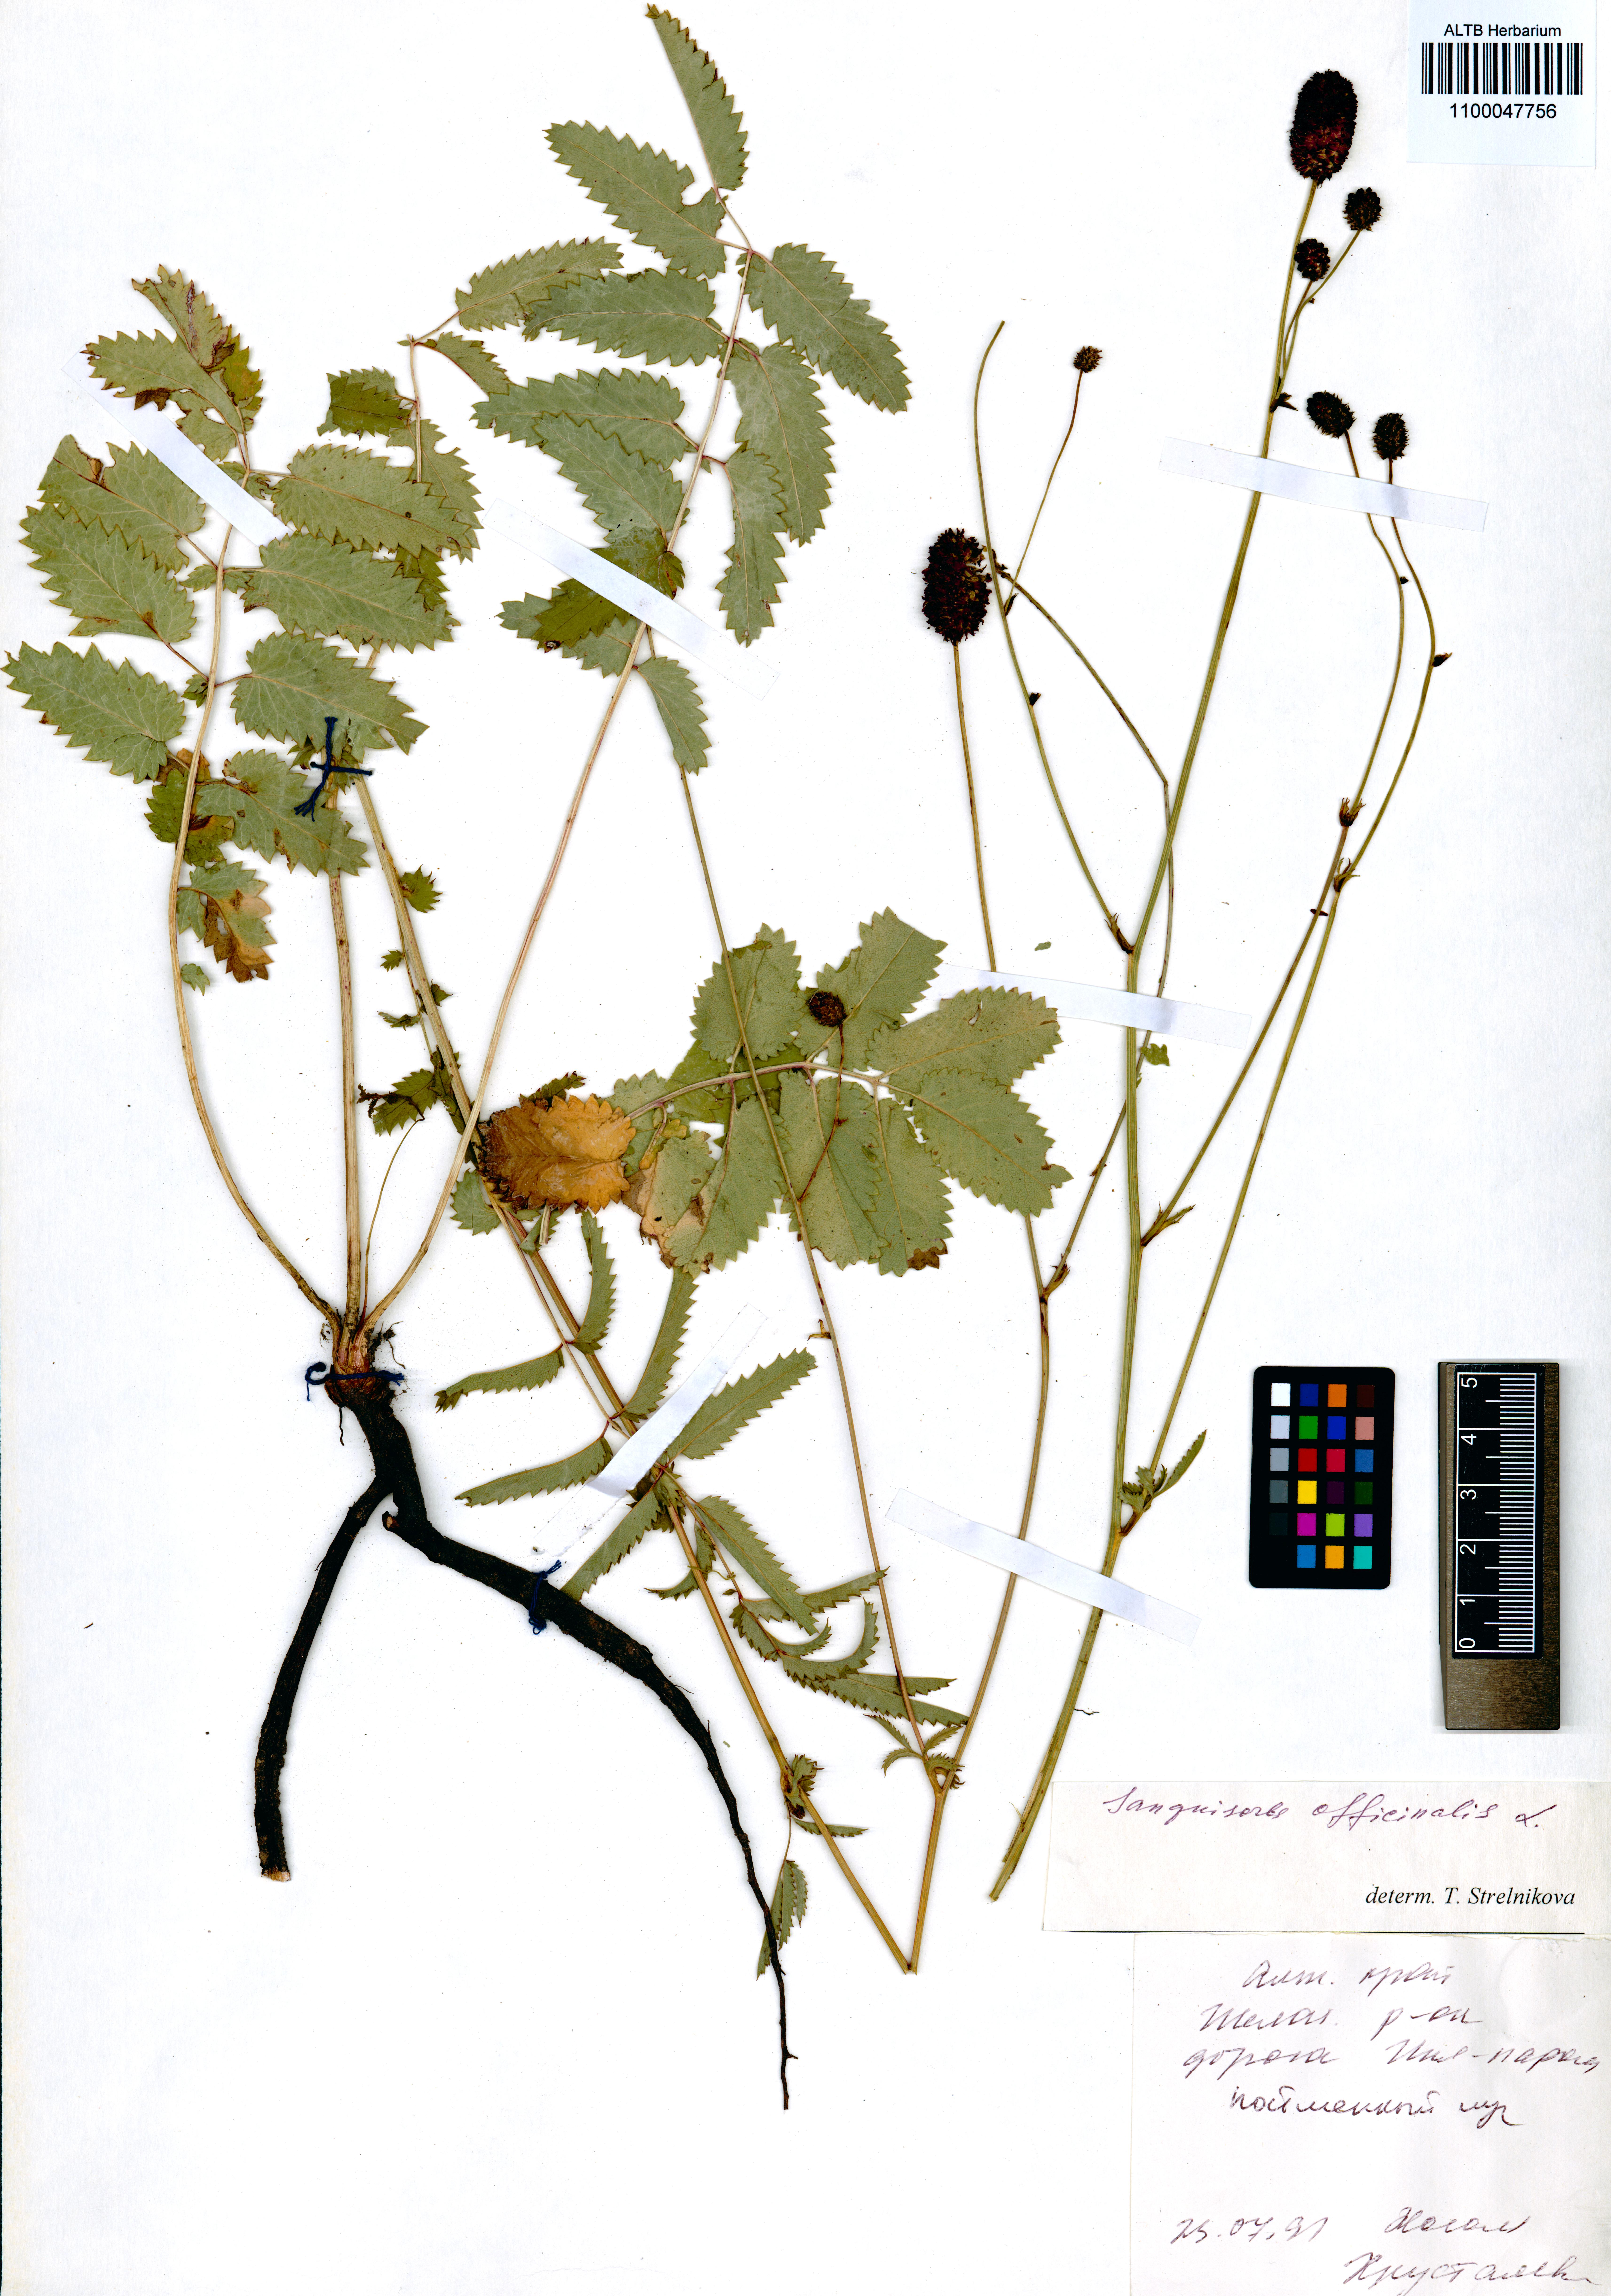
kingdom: Plantae
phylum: Tracheophyta
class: Magnoliopsida
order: Rosales
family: Rosaceae
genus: Sanguisorba
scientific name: Sanguisorba officinalis
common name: Great burnet
